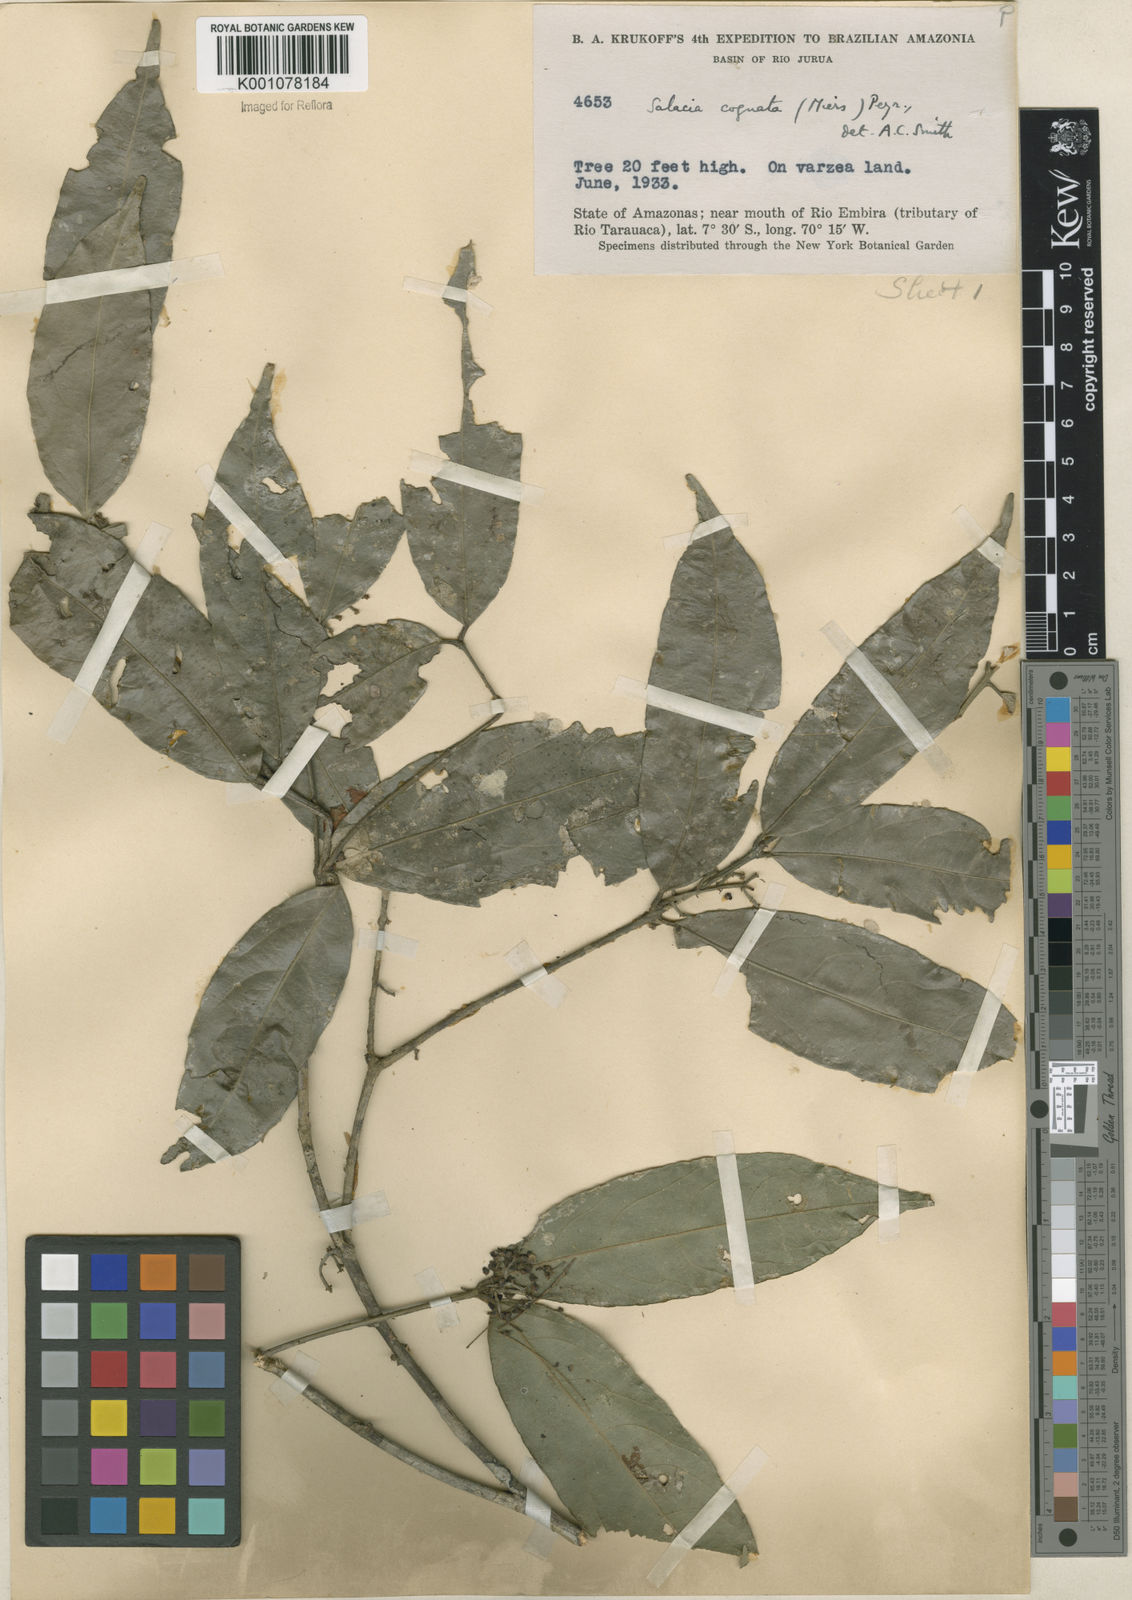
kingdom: Plantae
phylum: Tracheophyta
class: Magnoliopsida
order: Celastrales
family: Celastraceae
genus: Cheiloclinium
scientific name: Cheiloclinium cognatum
